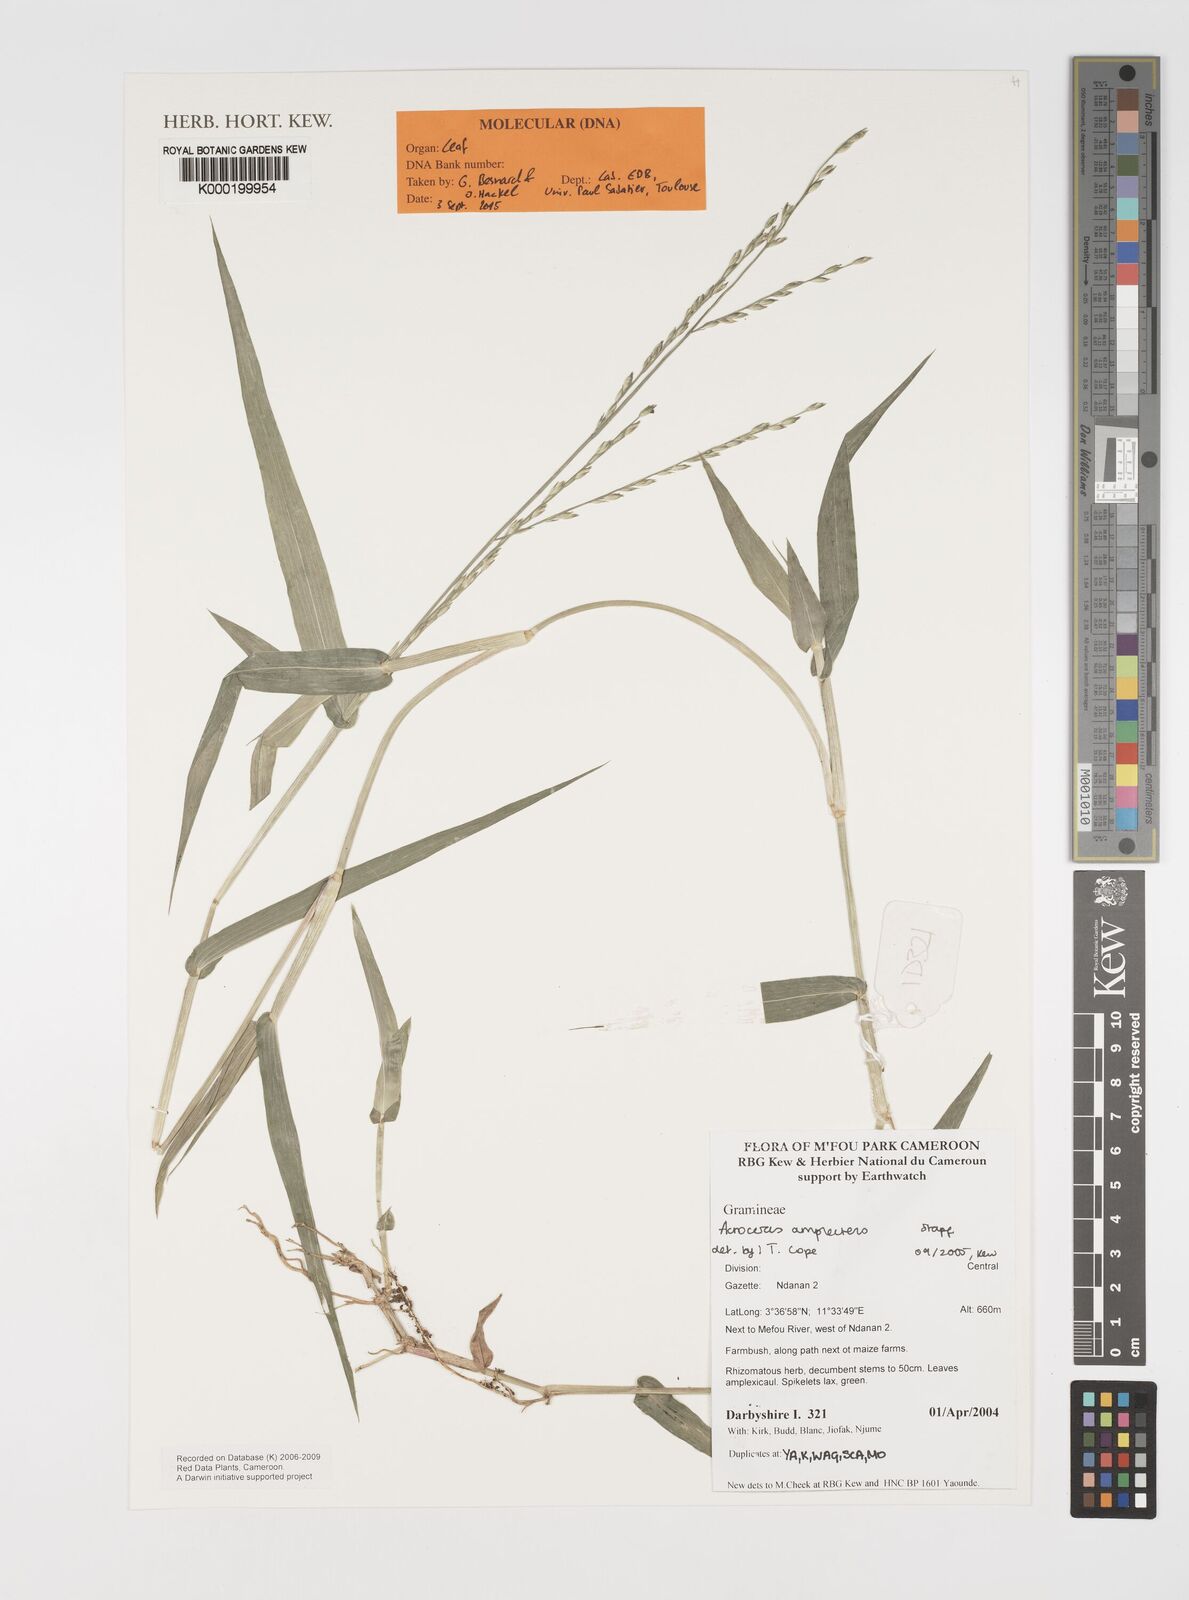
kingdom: Plantae
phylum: Tracheophyta
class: Liliopsida
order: Poales
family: Poaceae
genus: Acroceras
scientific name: Acroceras amplectens
